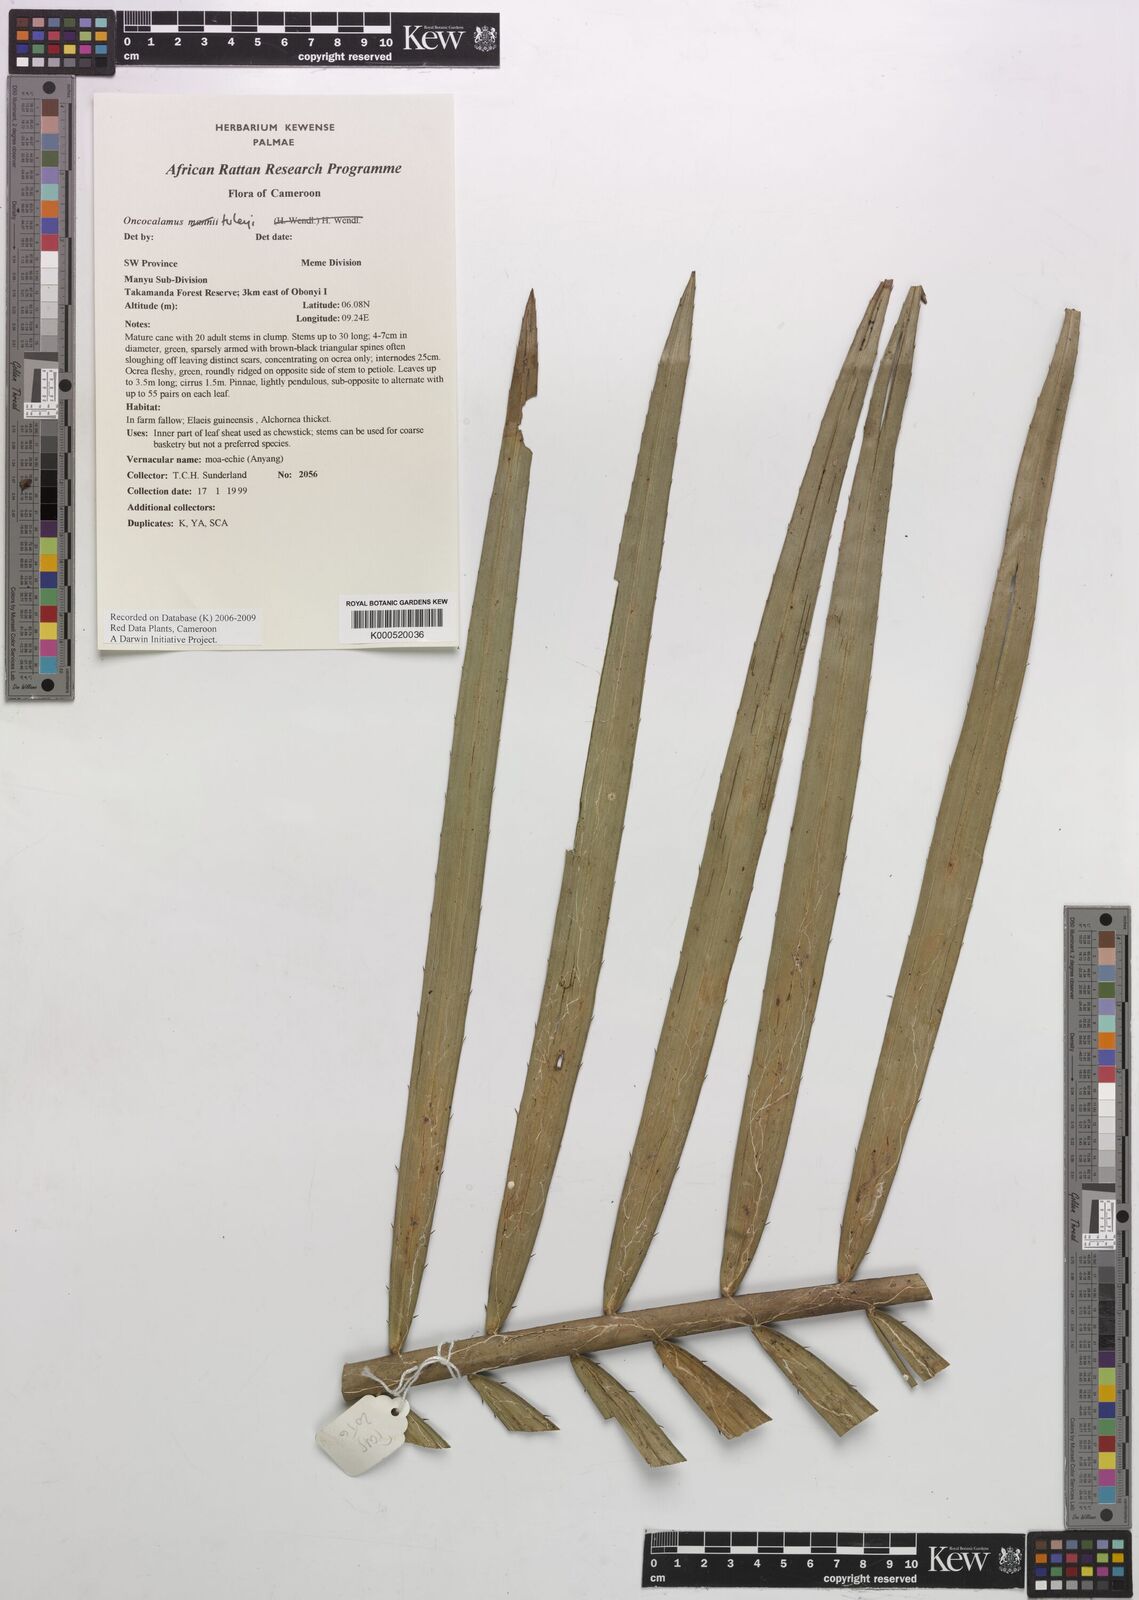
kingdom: Plantae
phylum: Tracheophyta
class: Liliopsida
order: Arecales
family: Arecaceae
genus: Oncocalamus
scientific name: Oncocalamus tuleyi
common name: Rattan
